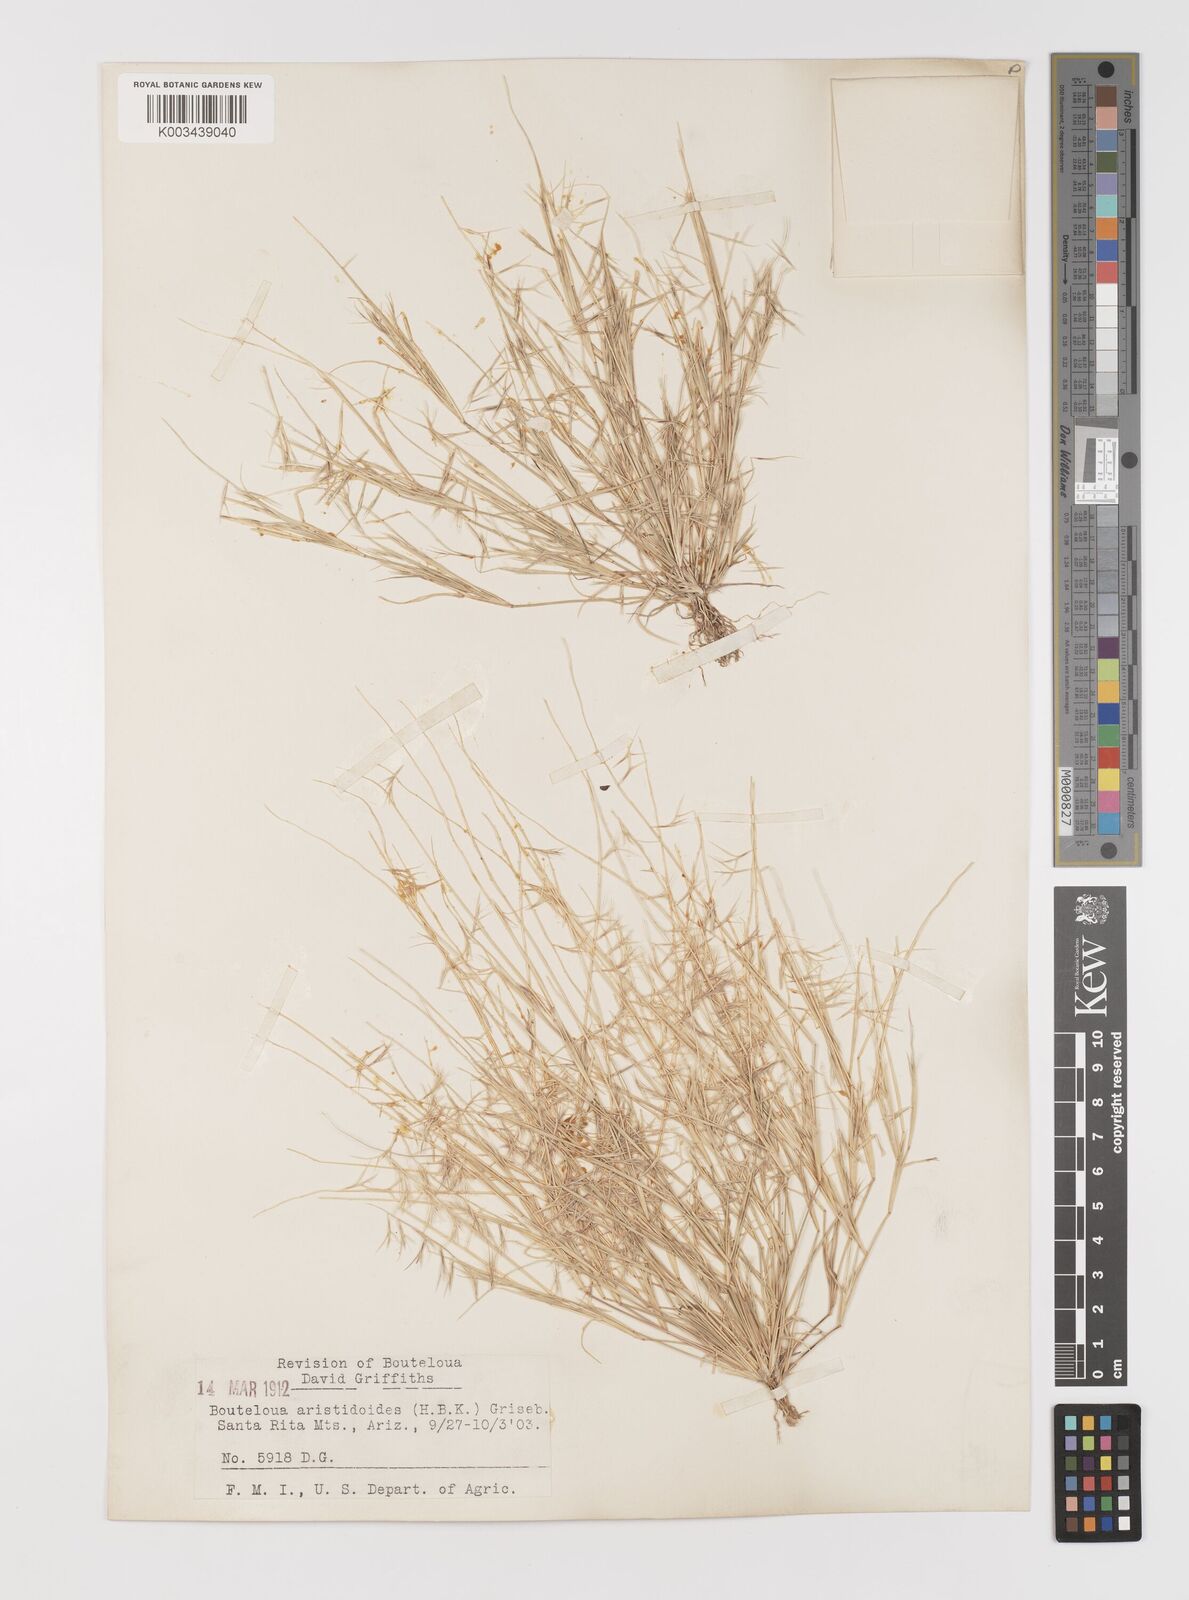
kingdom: Plantae
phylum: Tracheophyta
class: Liliopsida
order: Poales
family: Poaceae
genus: Bouteloua
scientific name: Bouteloua aristidoides
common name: Needle grama
